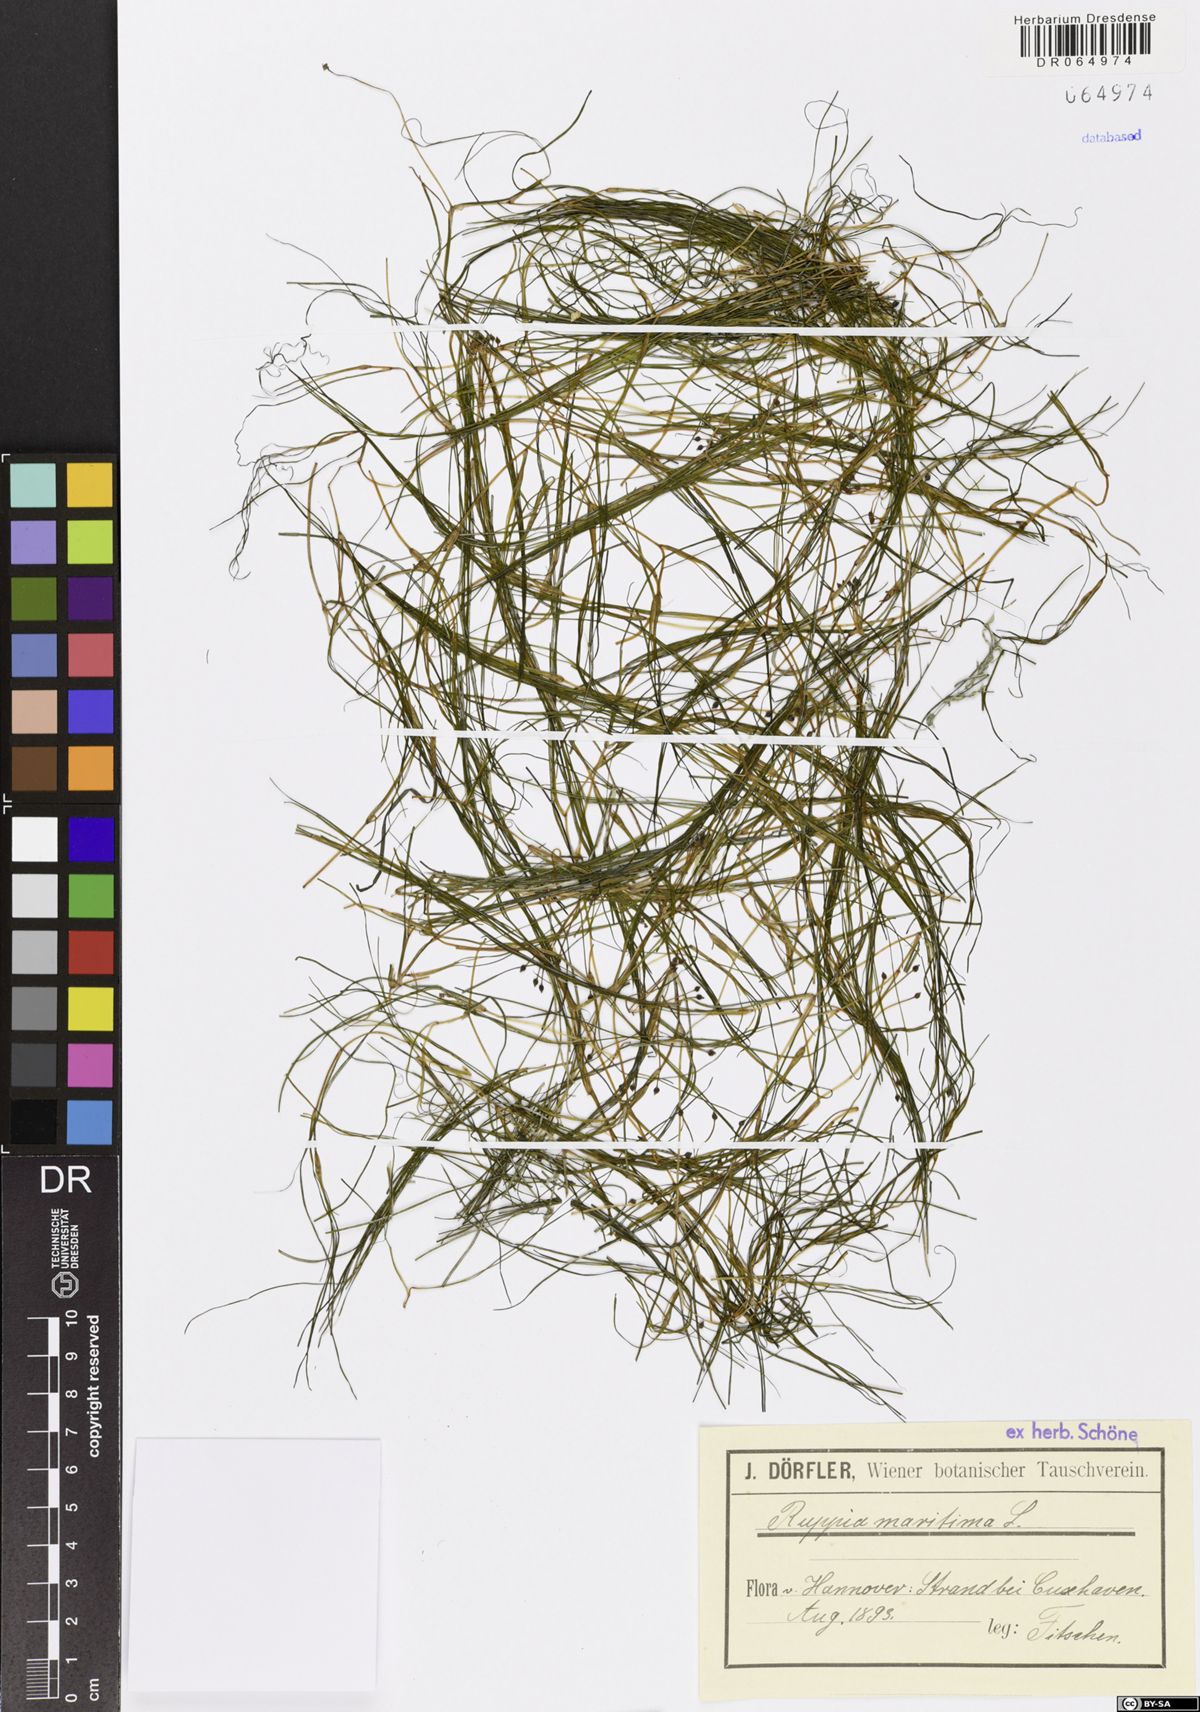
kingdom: Plantae
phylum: Tracheophyta
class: Liliopsida
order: Alismatales
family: Ruppiaceae
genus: Ruppia
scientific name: Ruppia maritima
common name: Beaked tasselweed
